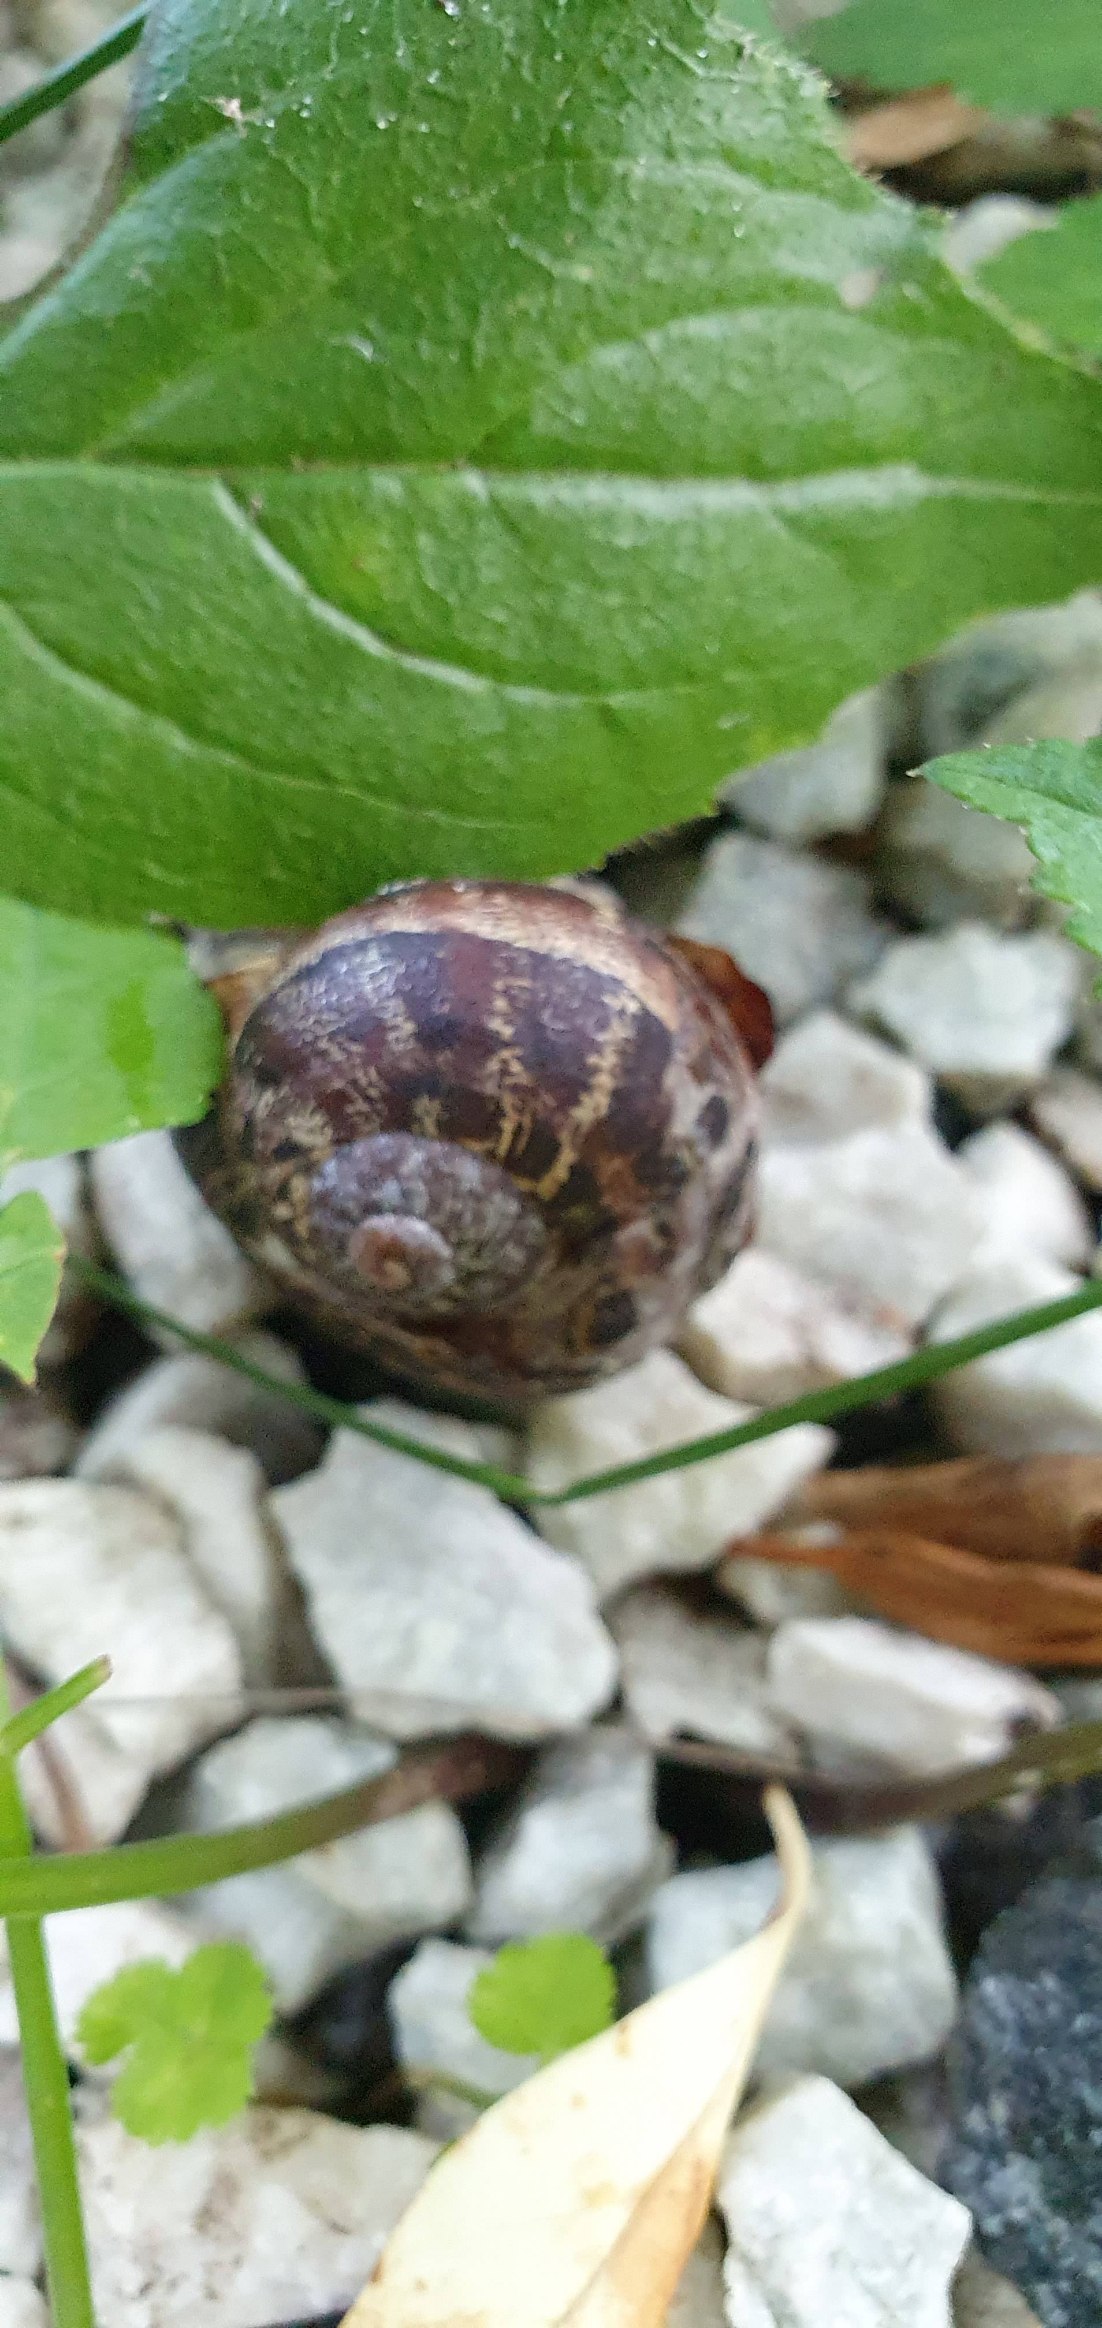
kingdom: Animalia
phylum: Mollusca
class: Gastropoda
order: Stylommatophora
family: Helicidae
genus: Cornu
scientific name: Cornu aspersum
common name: Plettet voldsnegl
